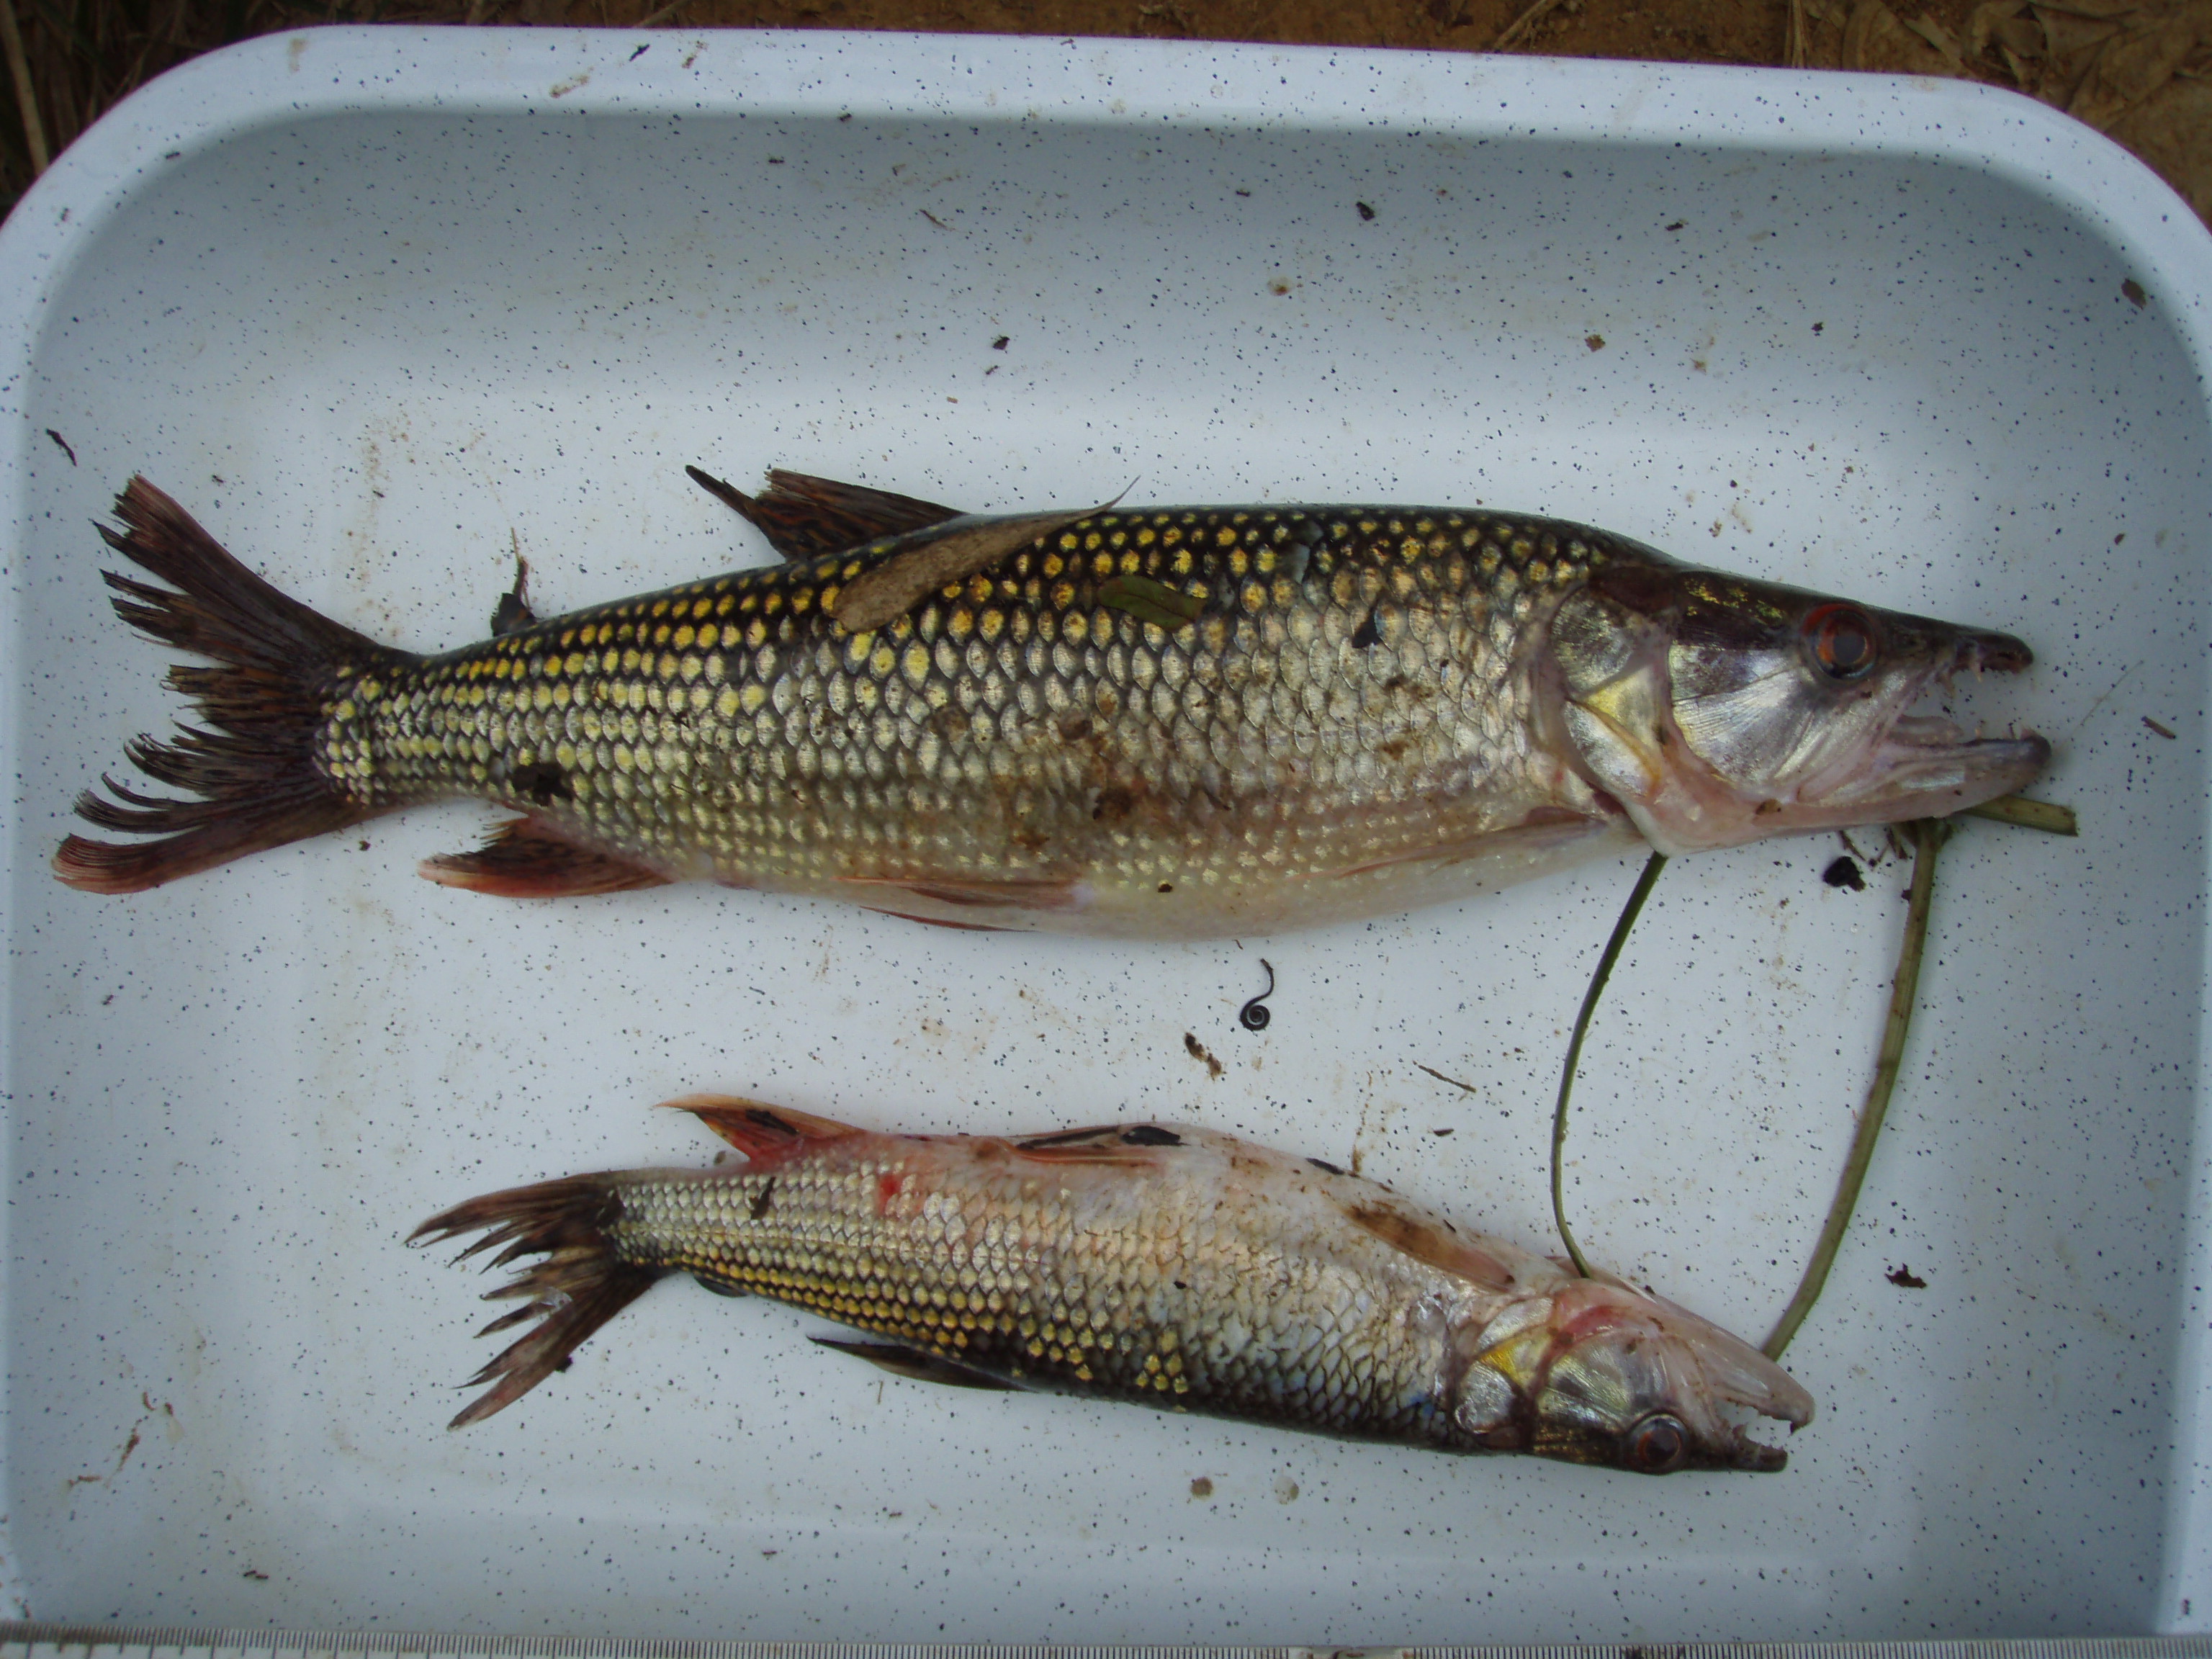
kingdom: Animalia
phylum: Chordata
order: Characiformes
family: Hepsetidae
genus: Hepsetus
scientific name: Hepsetus odoe
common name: African pike
